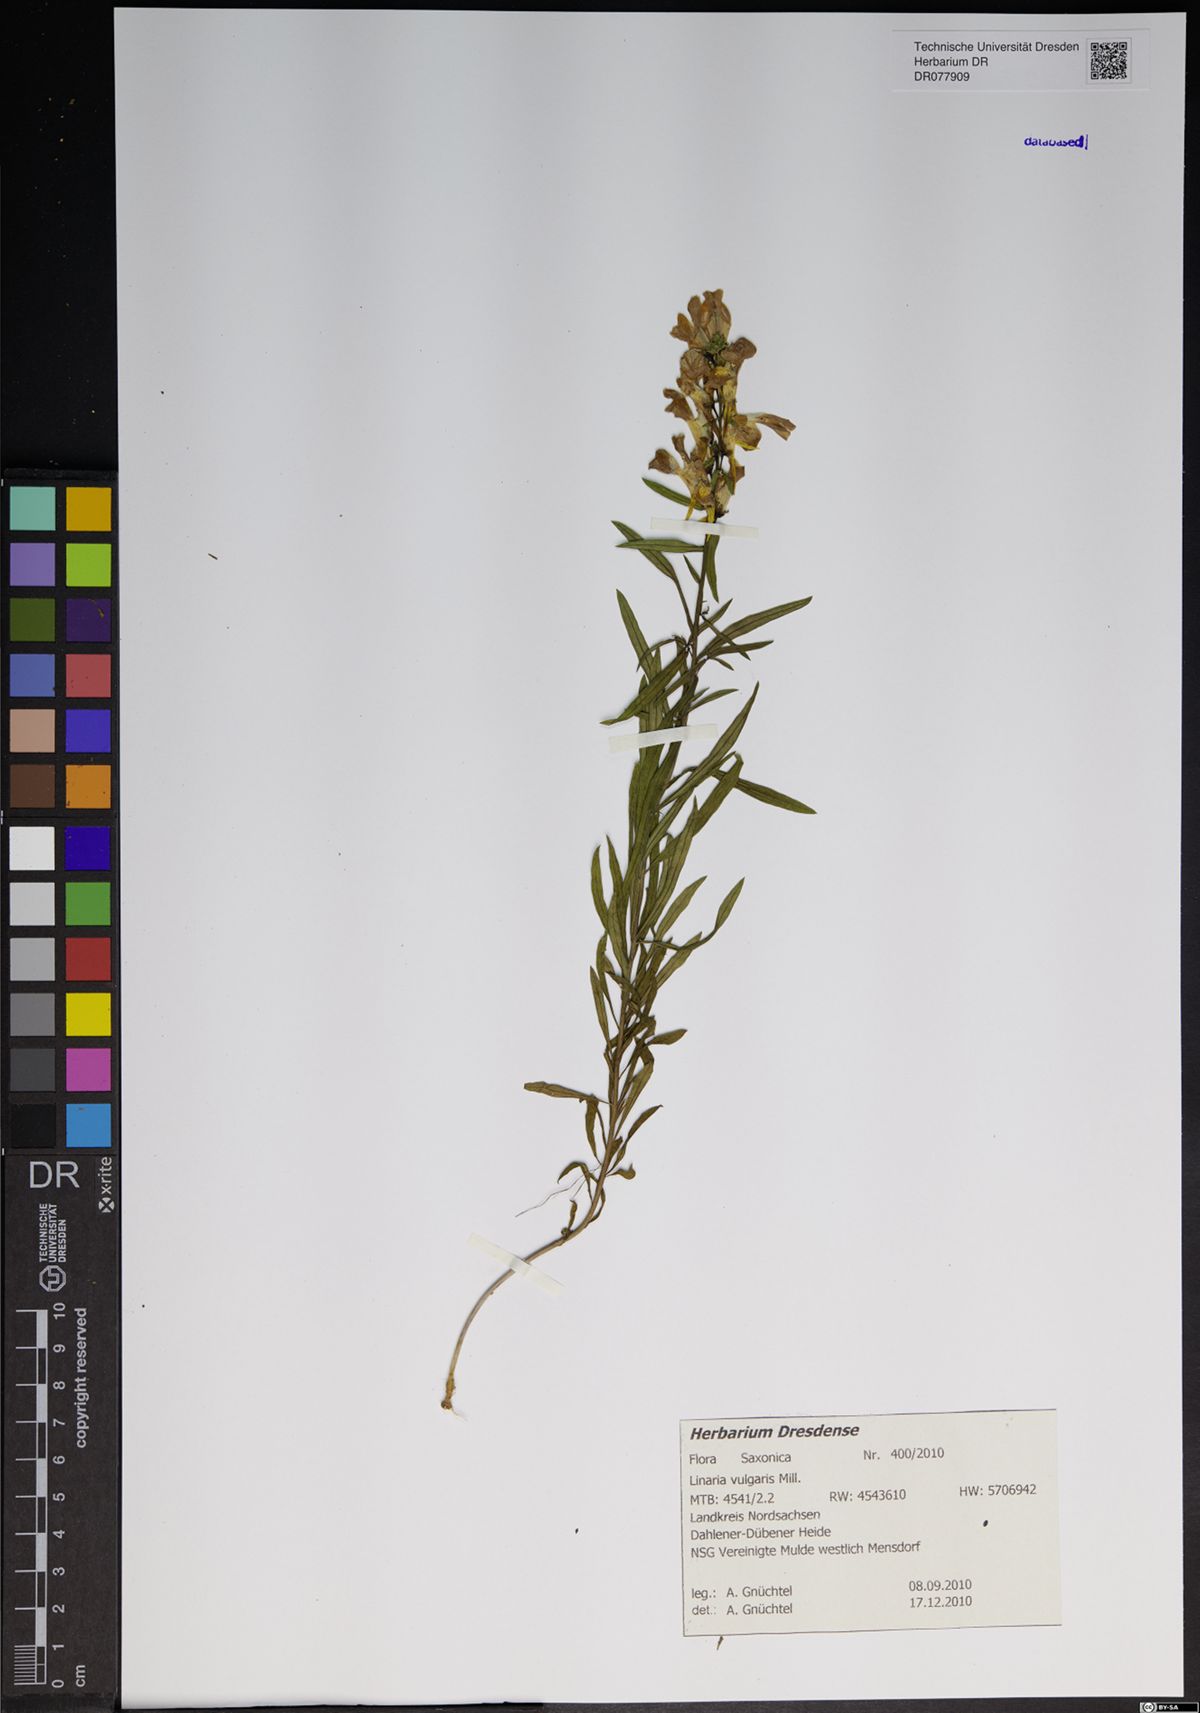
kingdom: Plantae
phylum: Tracheophyta
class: Magnoliopsida
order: Lamiales
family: Plantaginaceae
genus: Linaria
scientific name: Linaria vulgaris
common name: Butter and eggs
